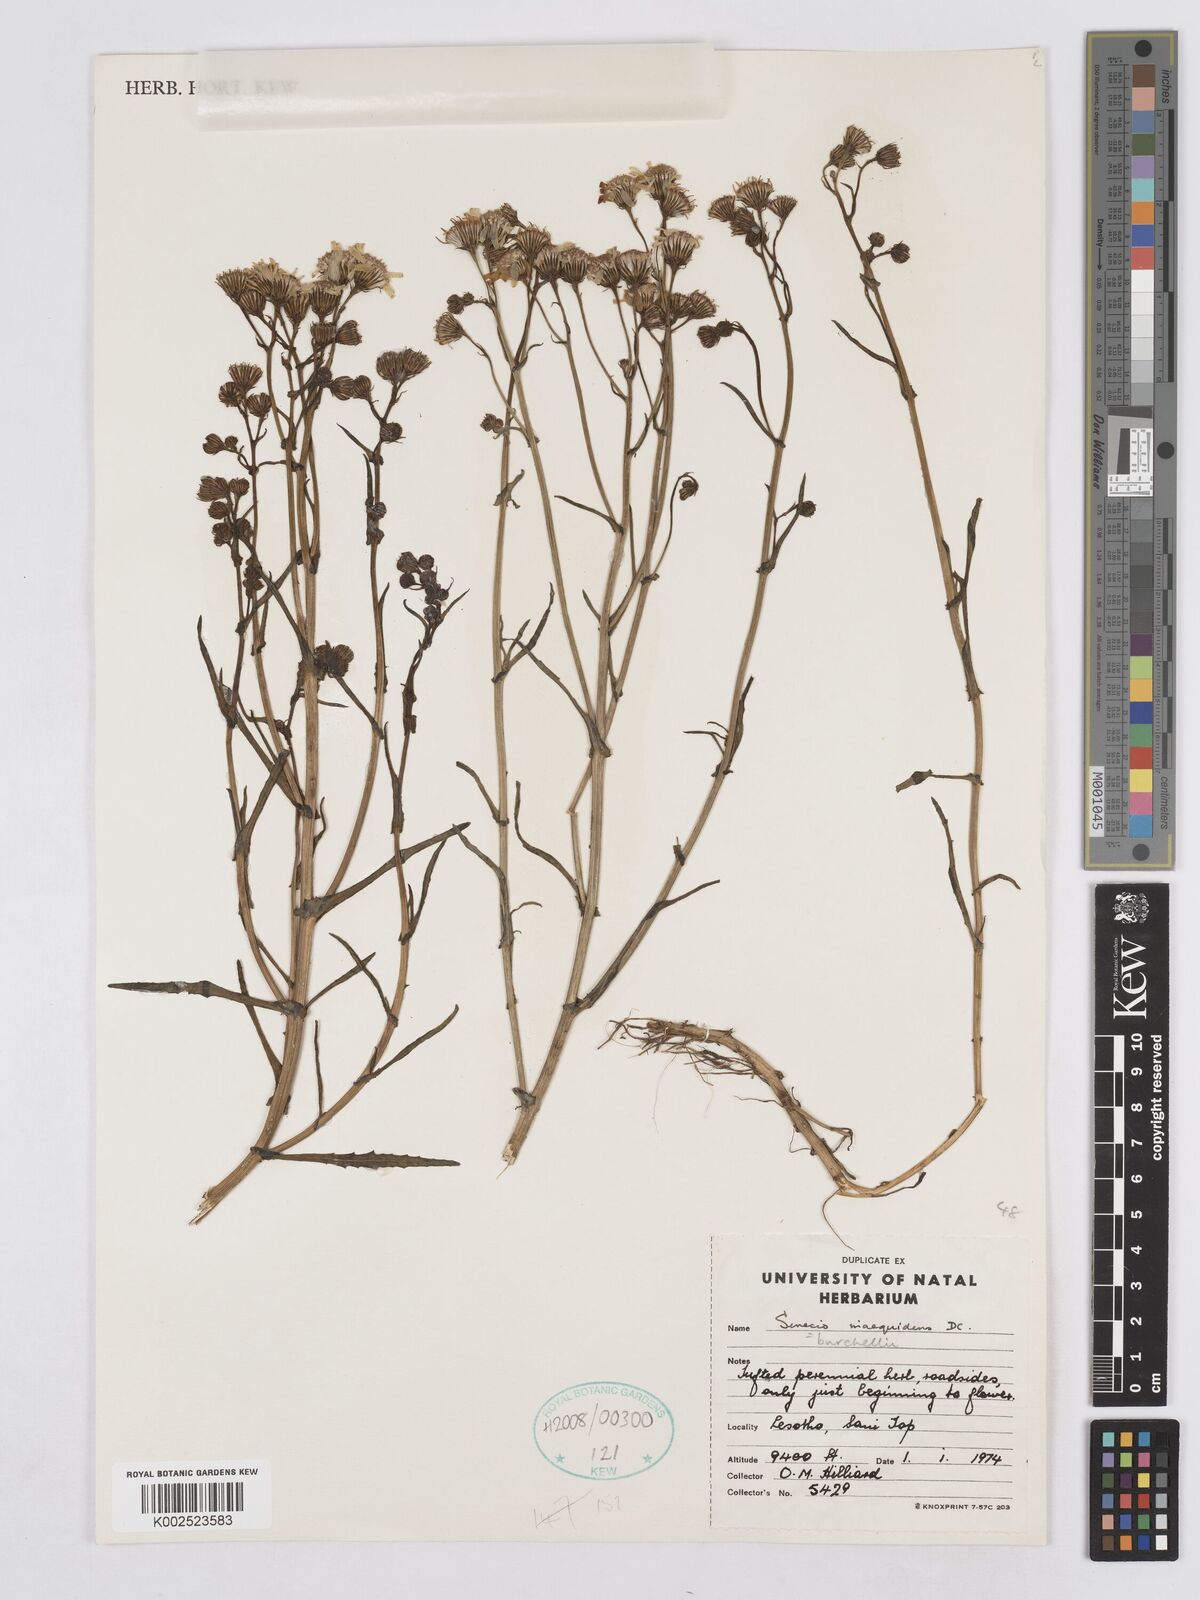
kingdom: Plantae
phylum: Tracheophyta
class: Magnoliopsida
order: Asterales
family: Asteraceae
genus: Senecio
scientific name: Senecio inaequidens
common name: Narrow-leaved ragwort
